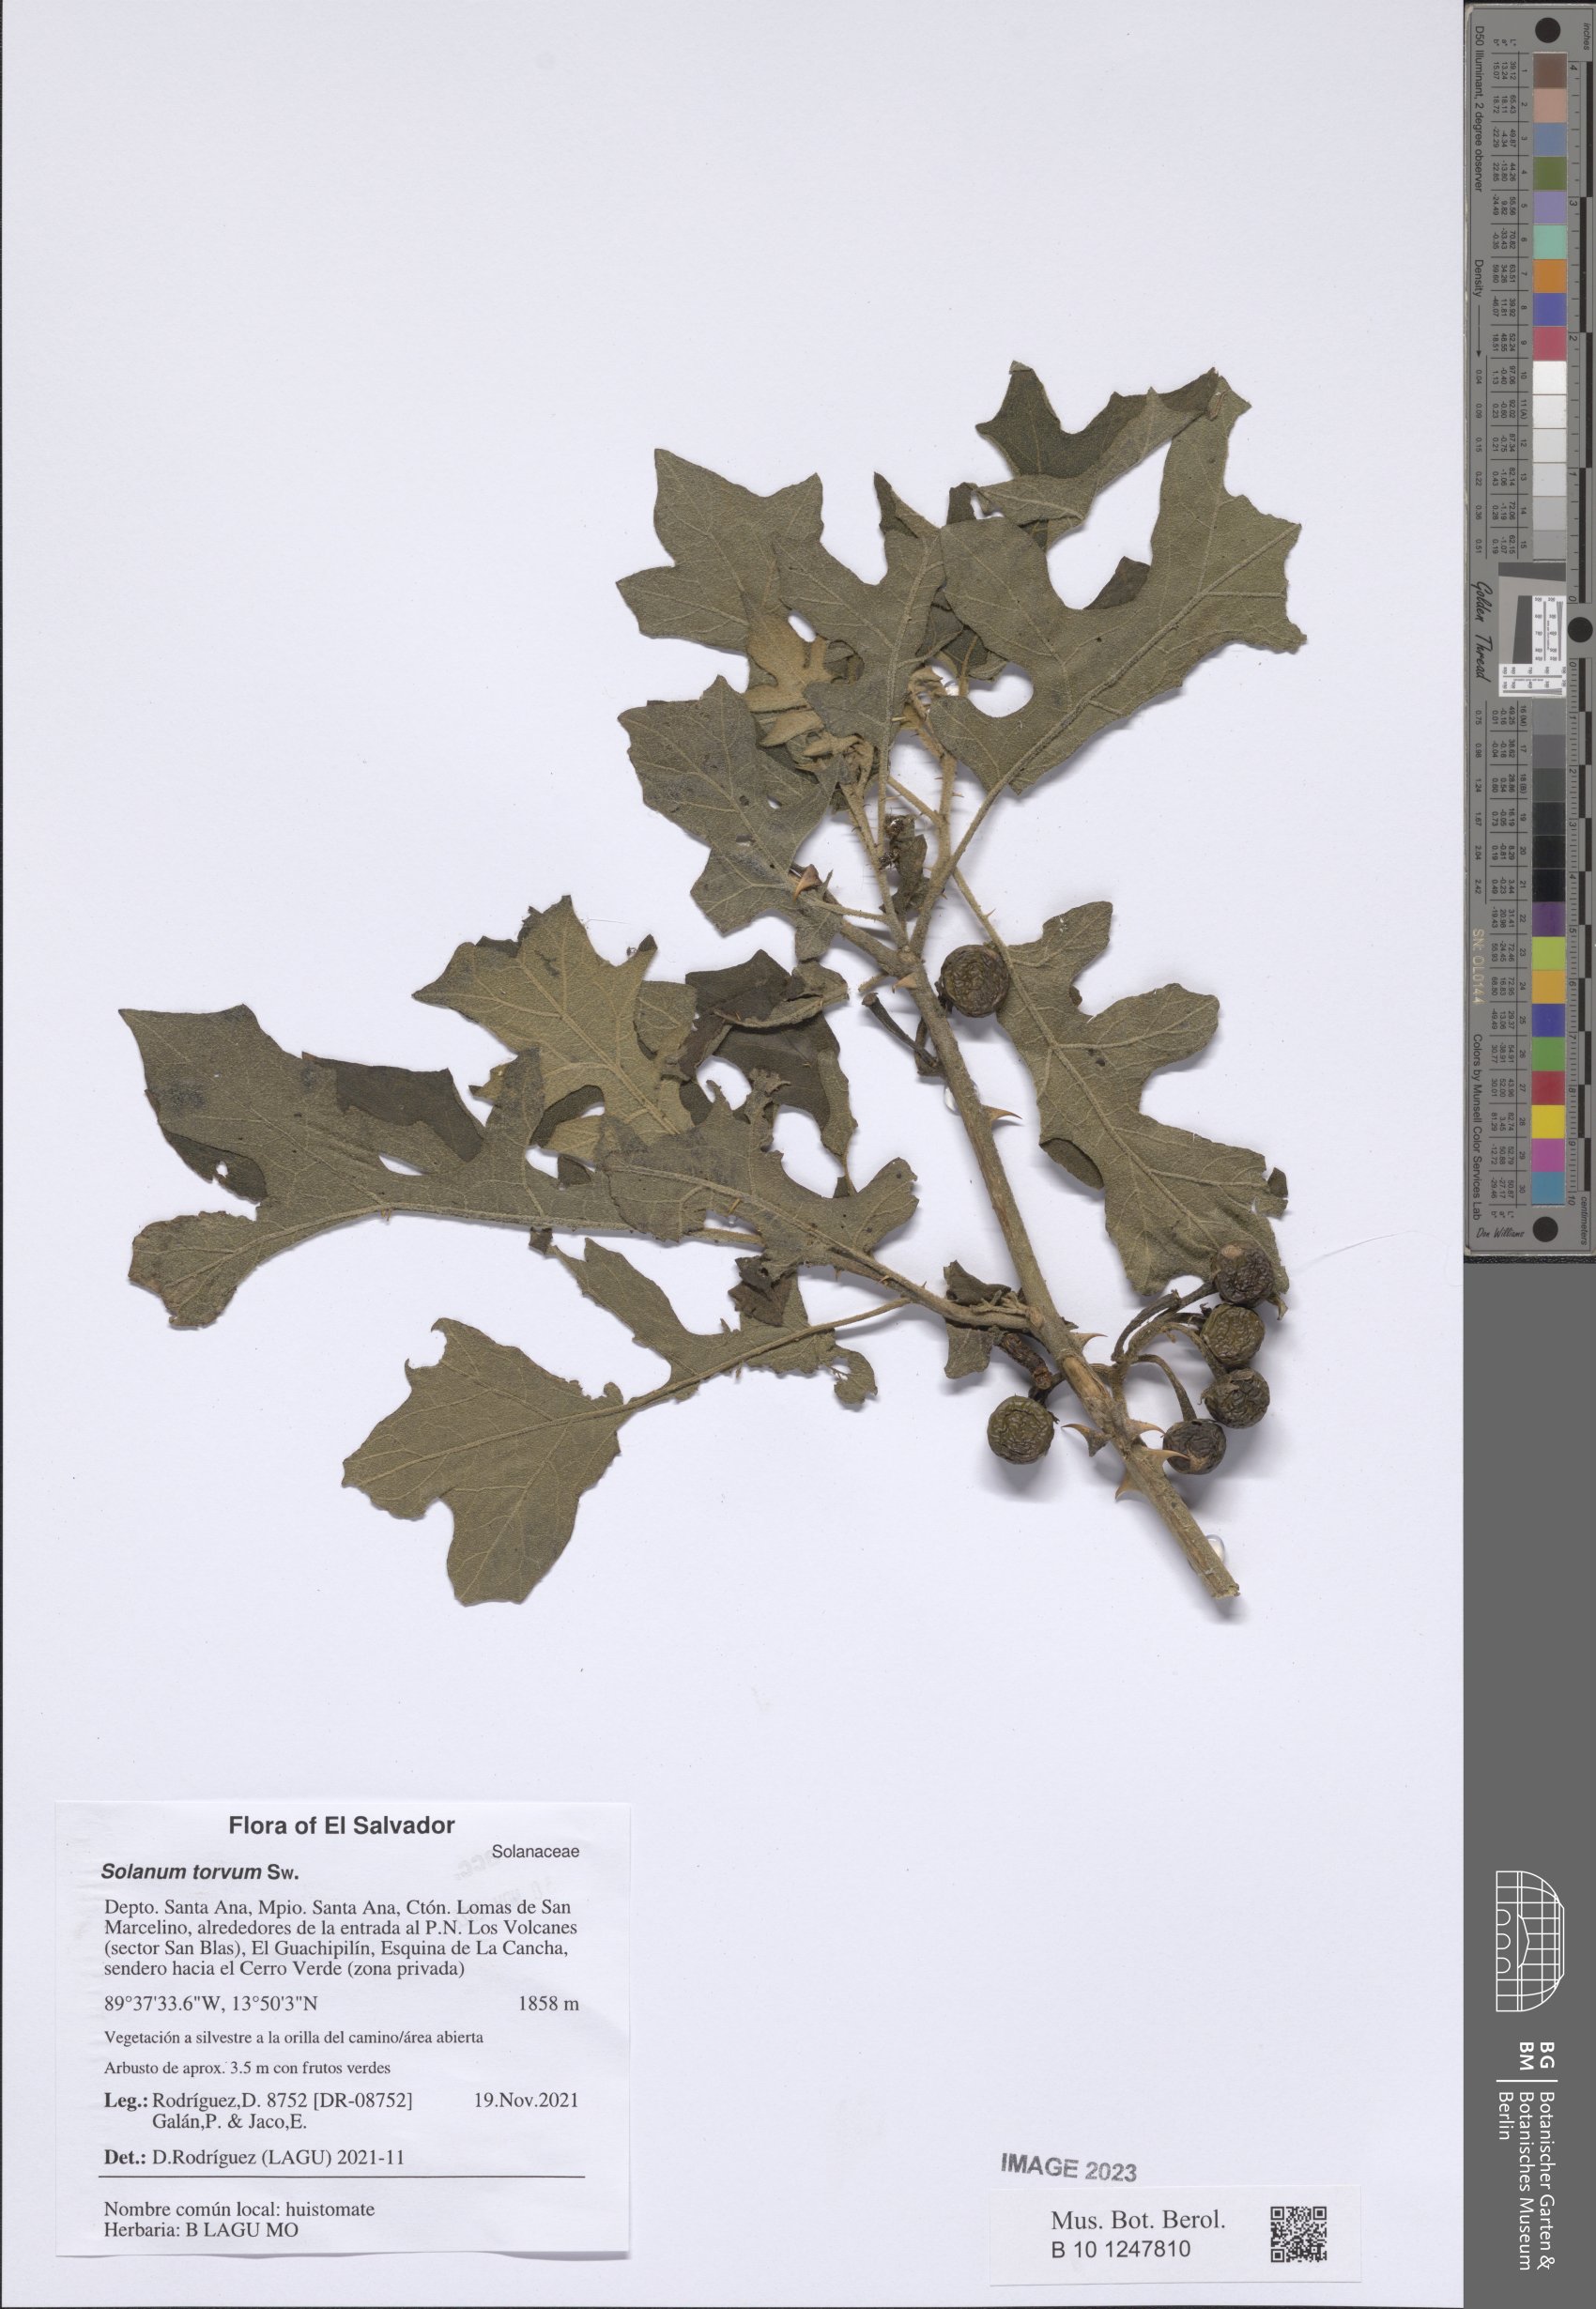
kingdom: Plantae
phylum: Tracheophyta
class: Magnoliopsida
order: Solanales
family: Solanaceae
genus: Solanum
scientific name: Solanum torvum
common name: Turkey berry
